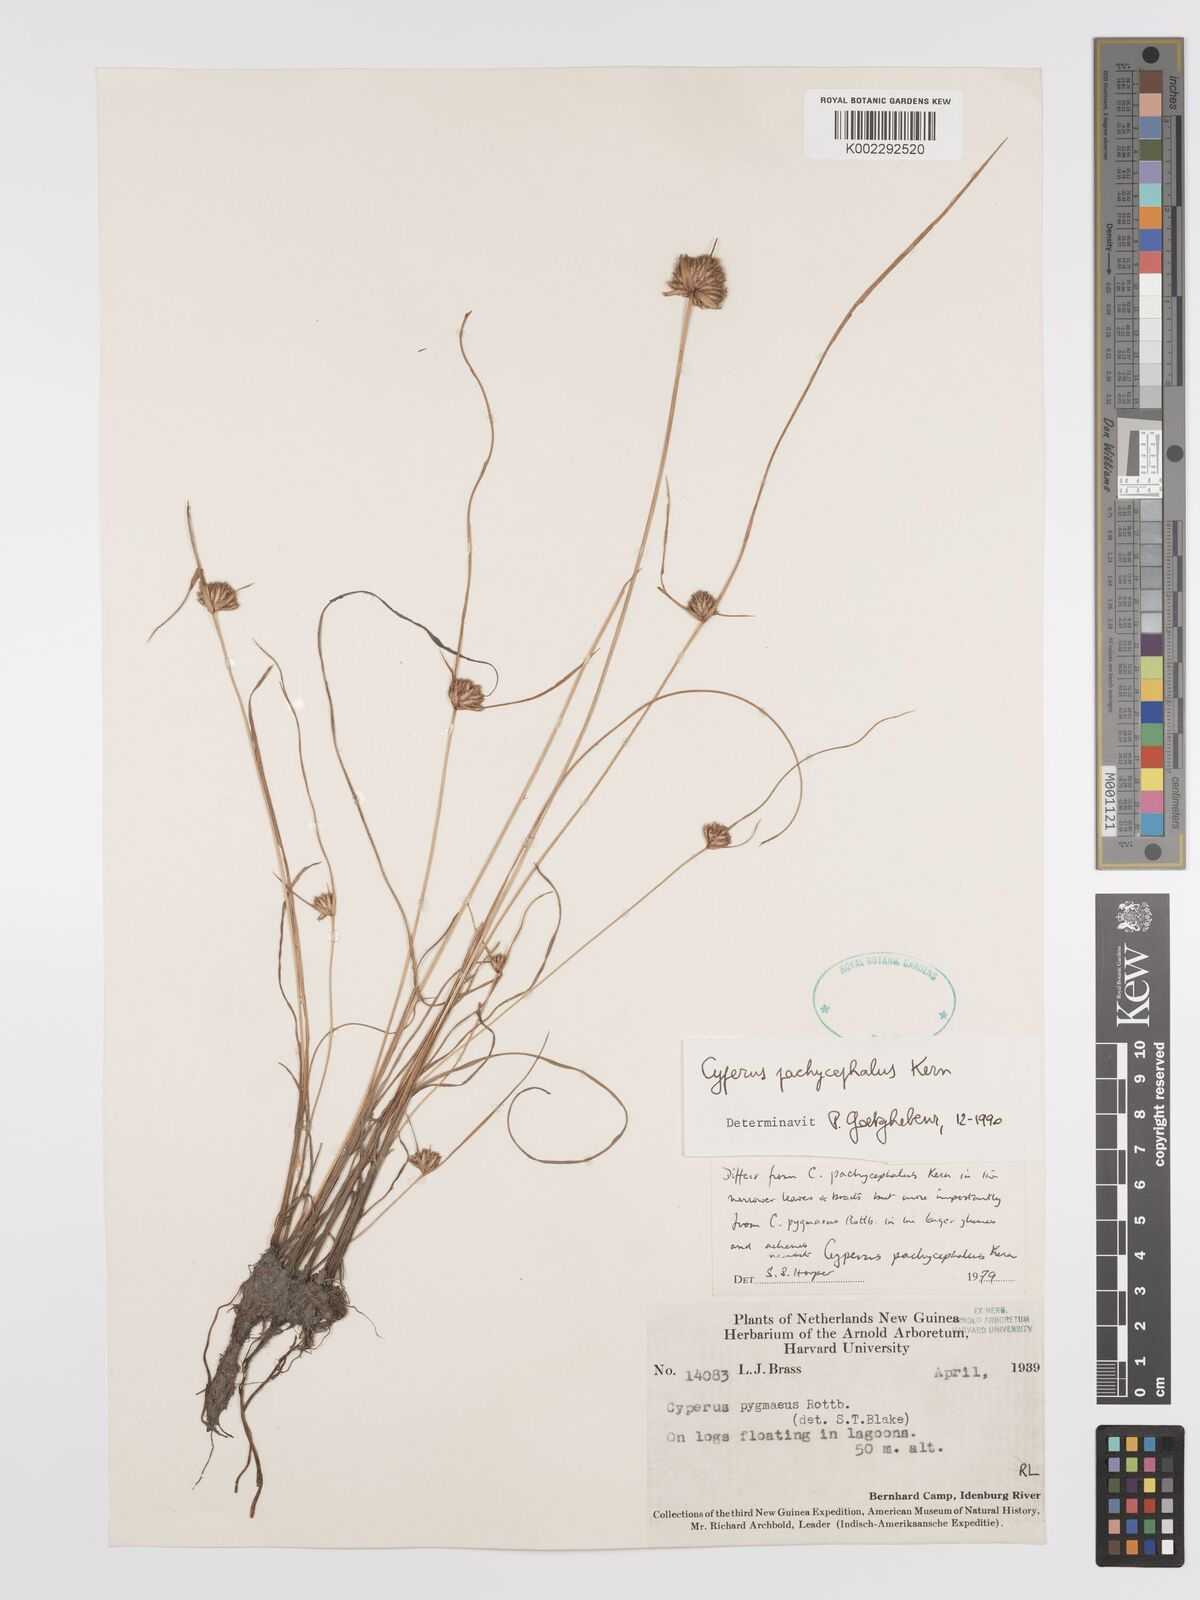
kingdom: Plantae
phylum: Tracheophyta
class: Liliopsida
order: Poales
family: Cyperaceae
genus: Cyperus
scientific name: Cyperus pachycephalus
